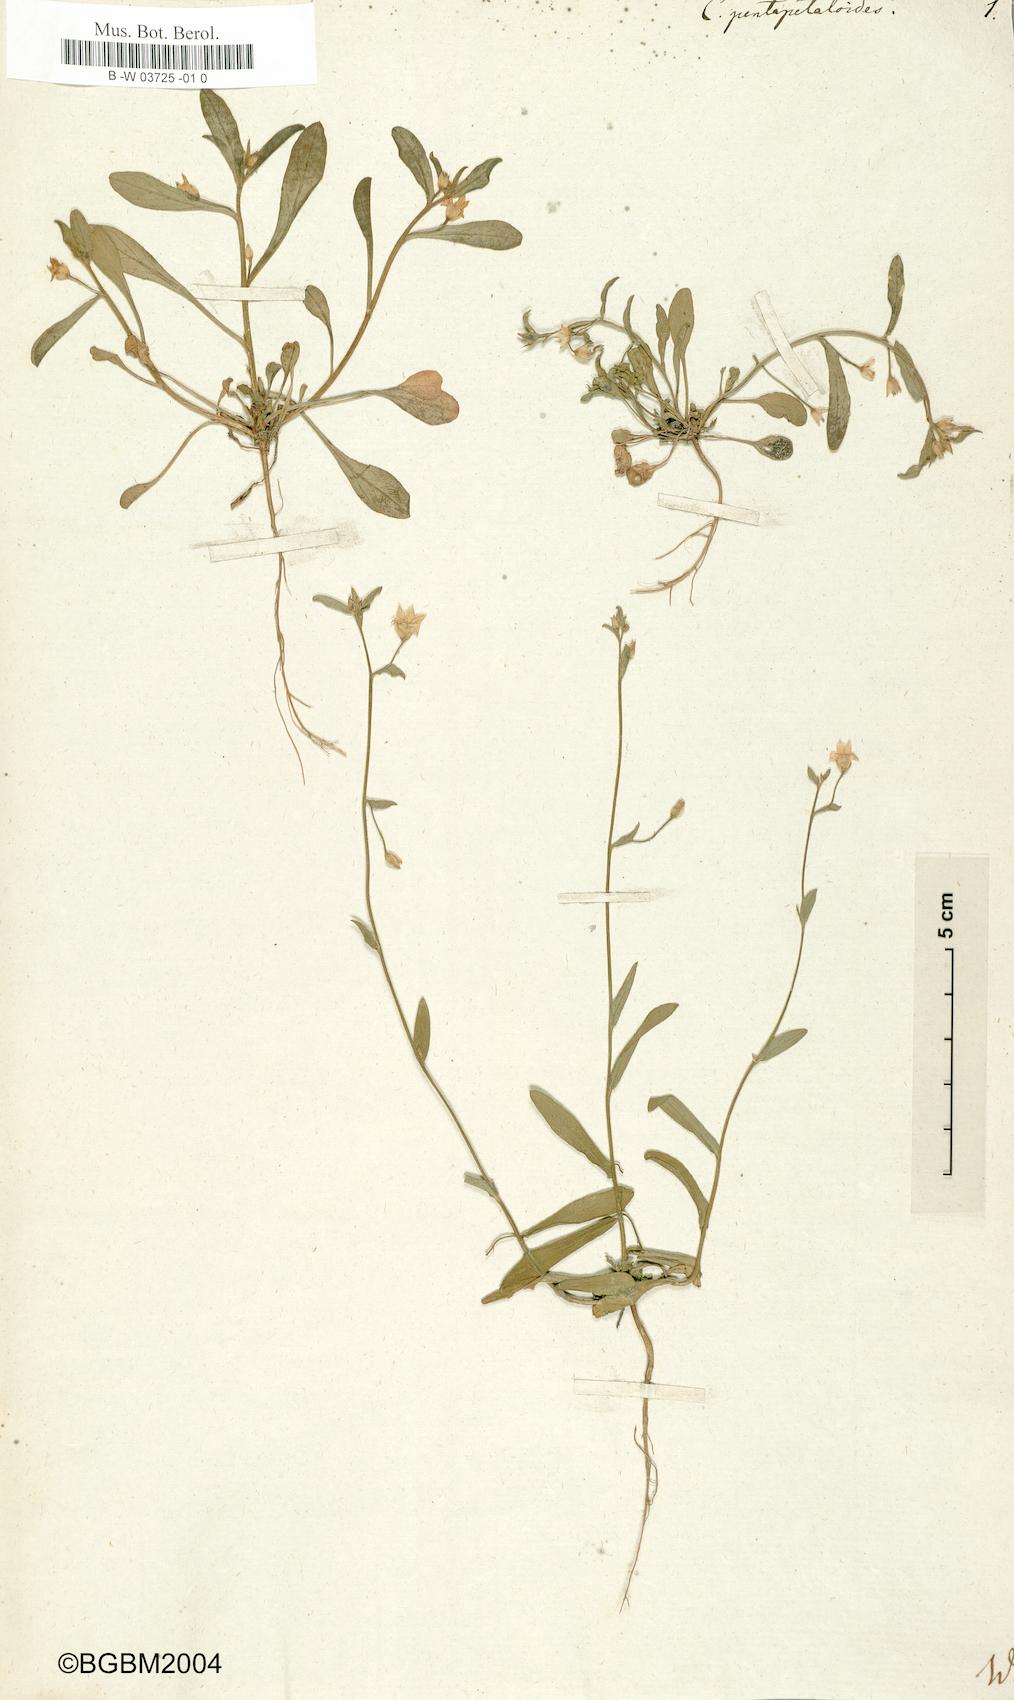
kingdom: Plantae
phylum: Tracheophyta
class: Magnoliopsida
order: Solanales
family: Convolvulaceae
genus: Convolvulus
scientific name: Convolvulus pentapetaloides
